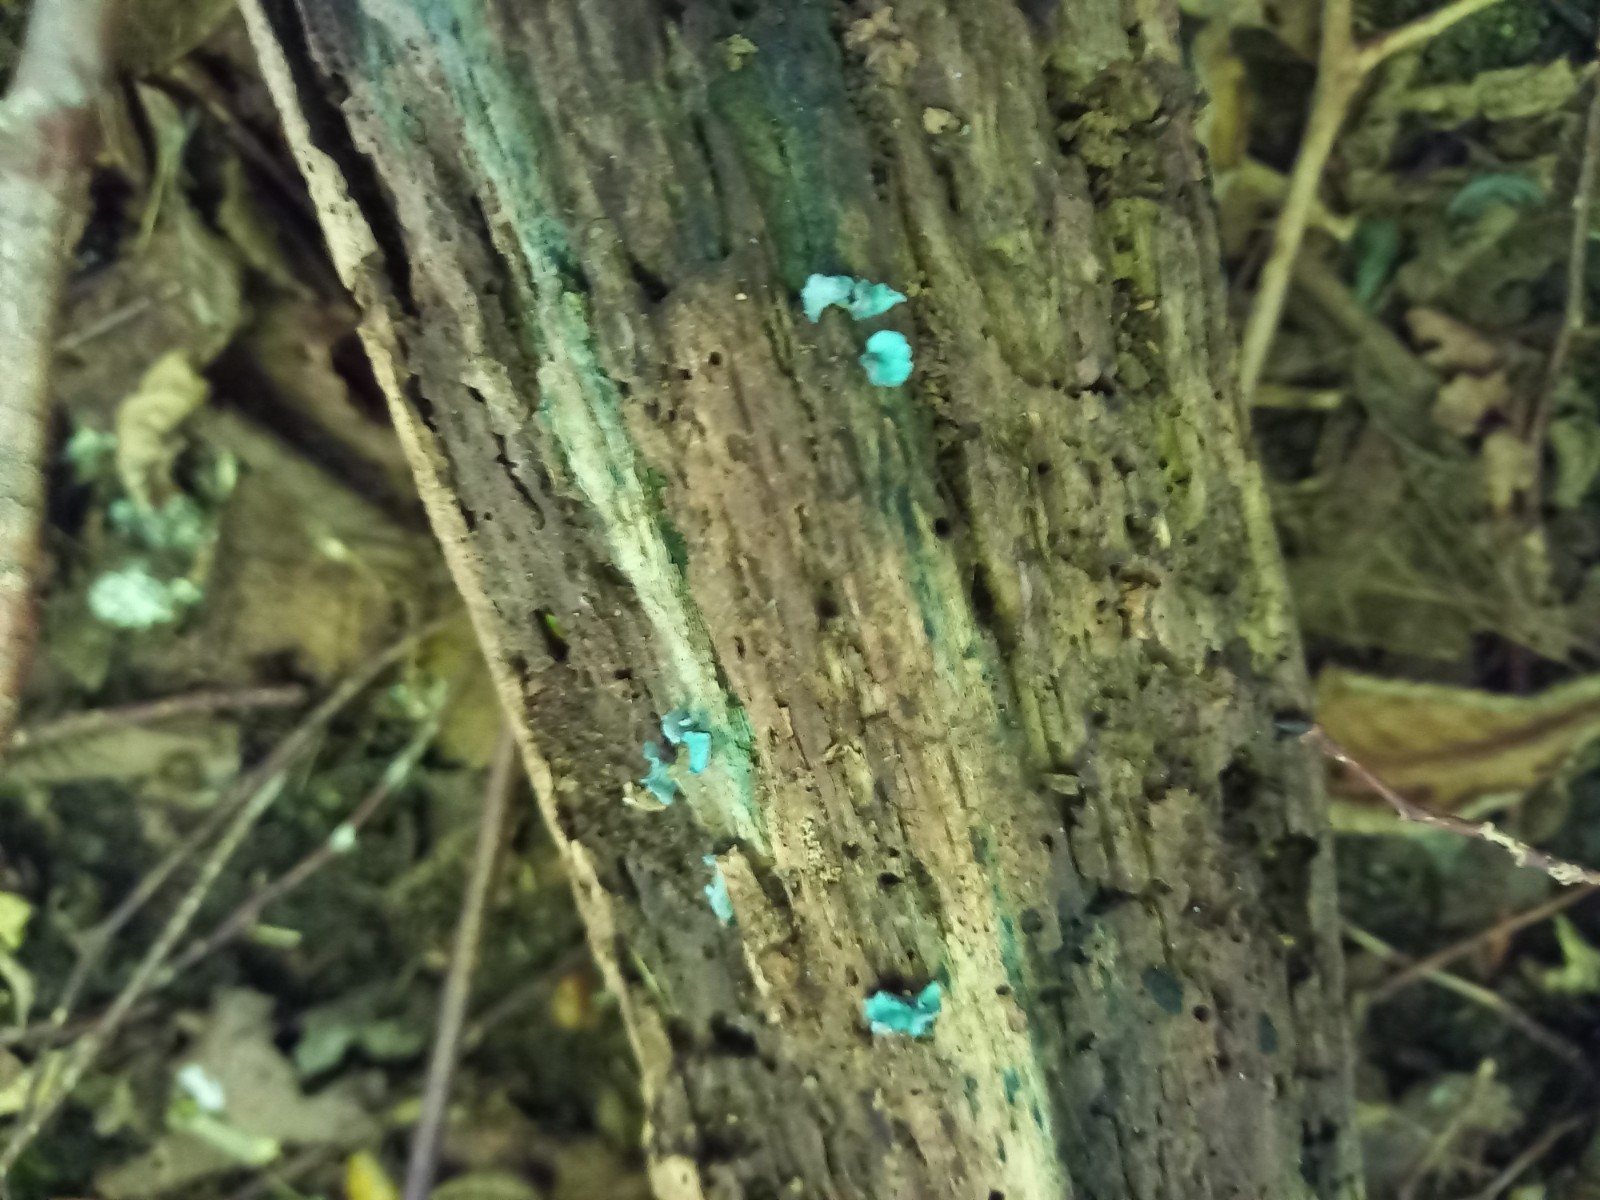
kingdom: Fungi
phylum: Ascomycota
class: Leotiomycetes
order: Helotiales
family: Chlorociboriaceae
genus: Chlorociboria
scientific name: Chlorociboria aeruginascens
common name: almindelig grønskive
